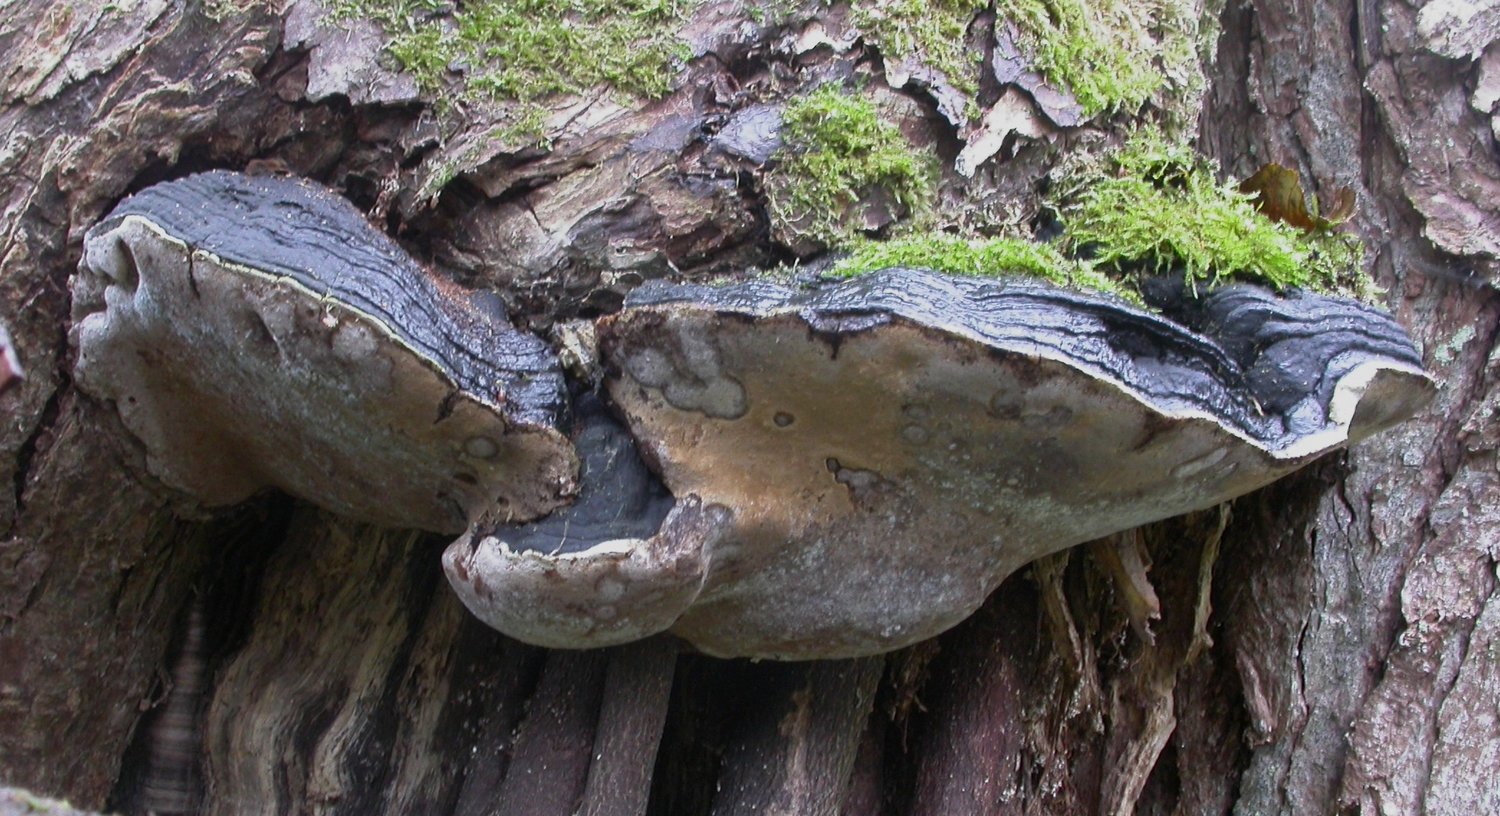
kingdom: Fungi
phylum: Basidiomycota
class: Agaricomycetes
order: Hymenochaetales
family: Hymenochaetaceae
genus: Phellinus
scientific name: Phellinus igniarius
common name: almindelig ildporesvamp
